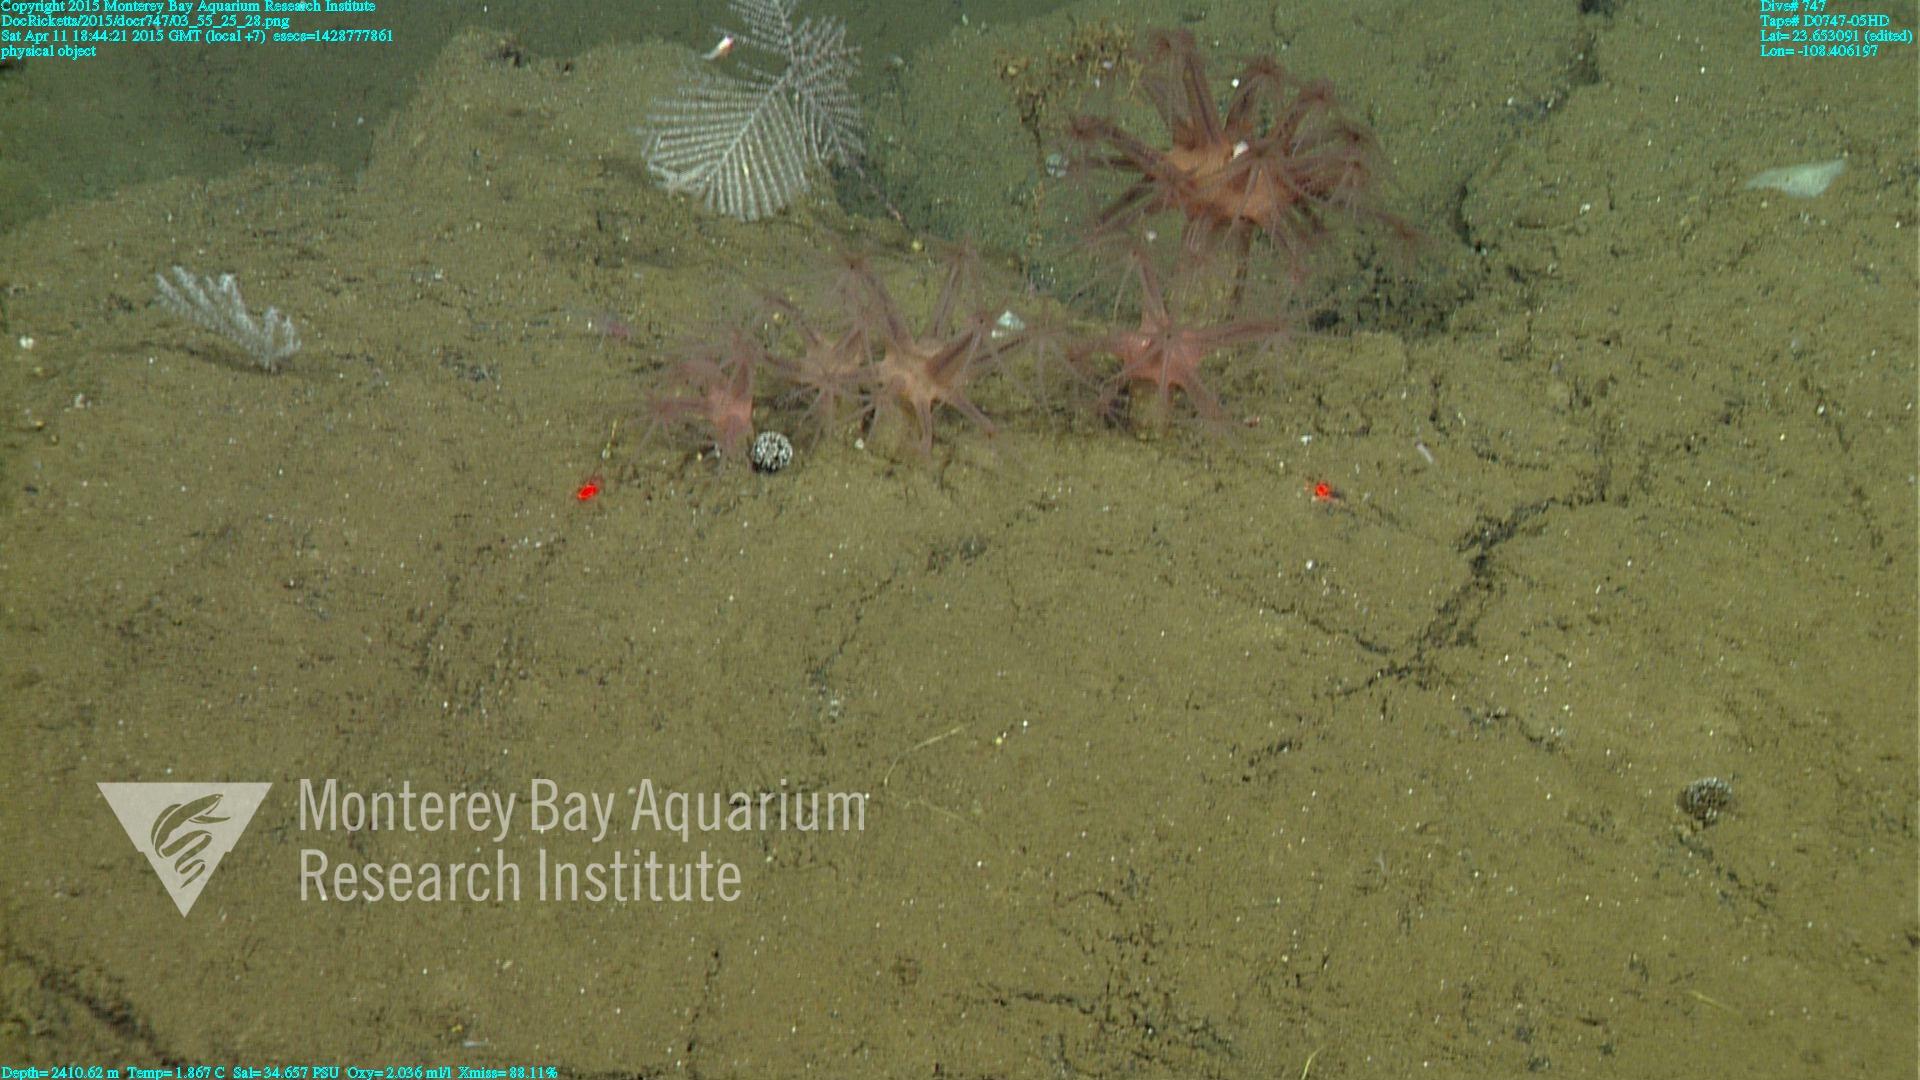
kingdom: Animalia
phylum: Cnidaria
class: Anthozoa
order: Scleralcyonacea
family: Coralliidae
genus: Heteropolypus
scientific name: Heteropolypus ritteri
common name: Ritter's soft coral
